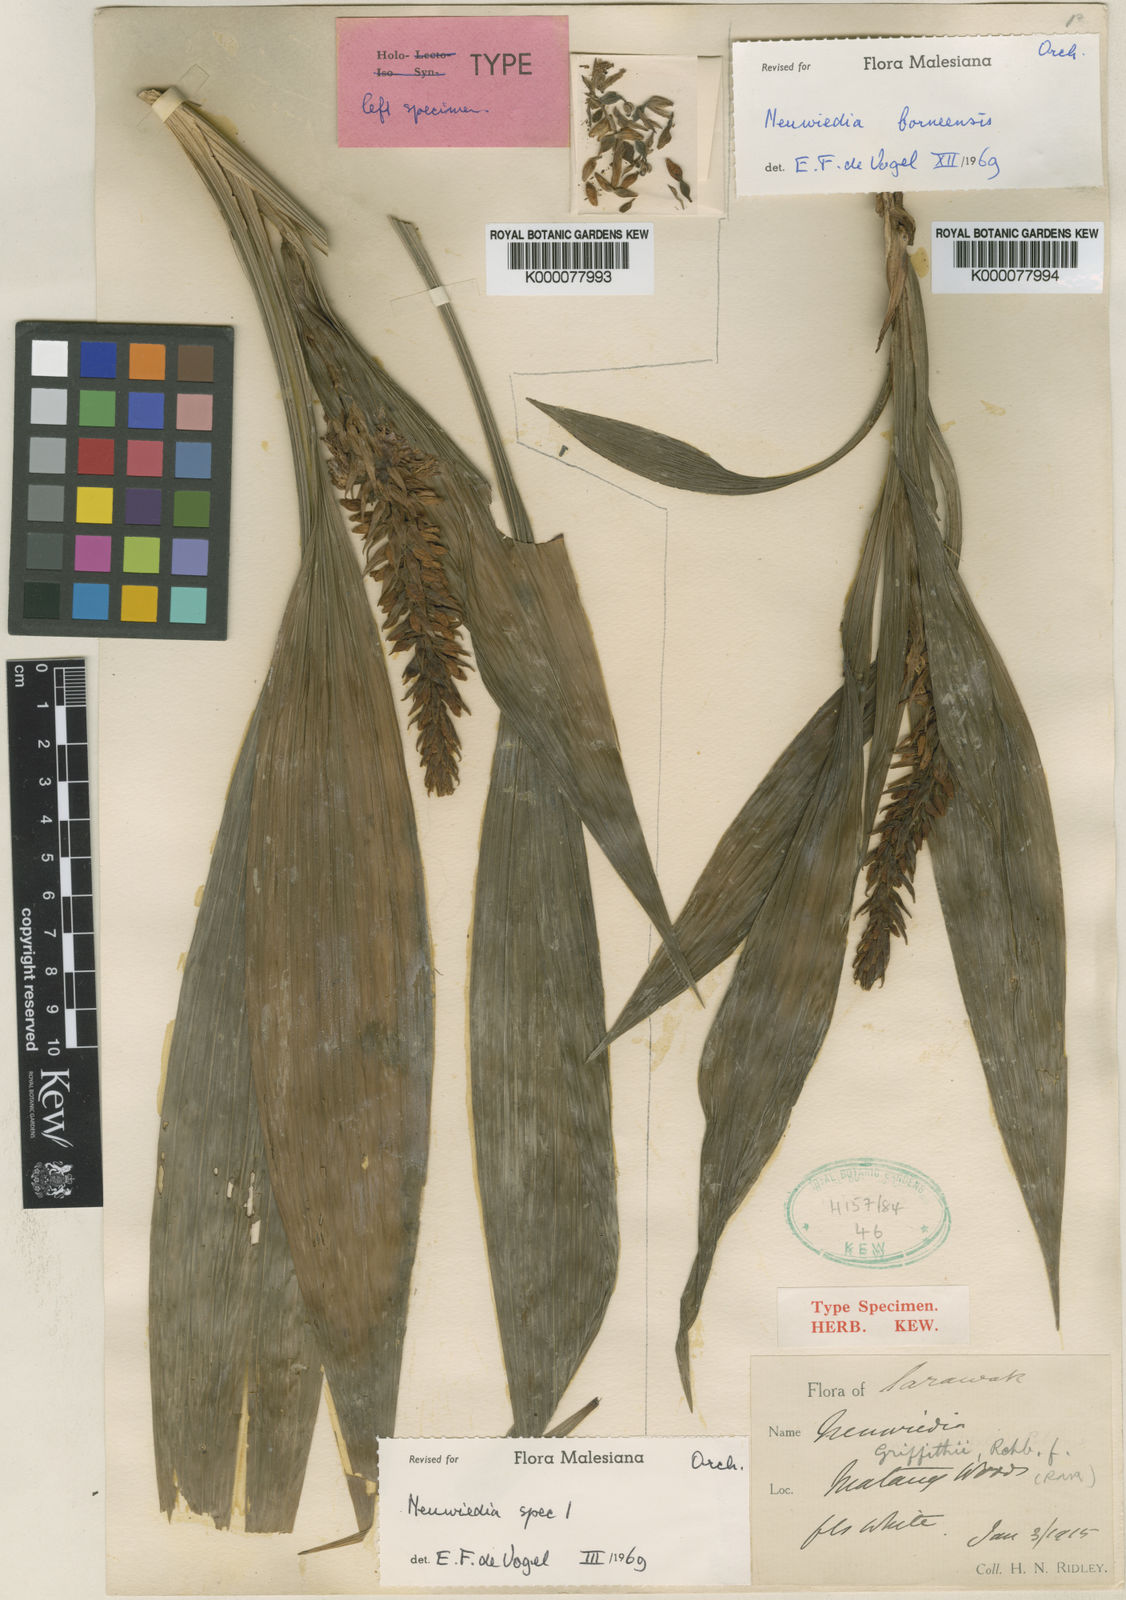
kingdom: Plantae
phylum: Tracheophyta
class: Liliopsida
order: Asparagales
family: Orchidaceae
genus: Neuwiedia
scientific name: Neuwiedia borneensis
